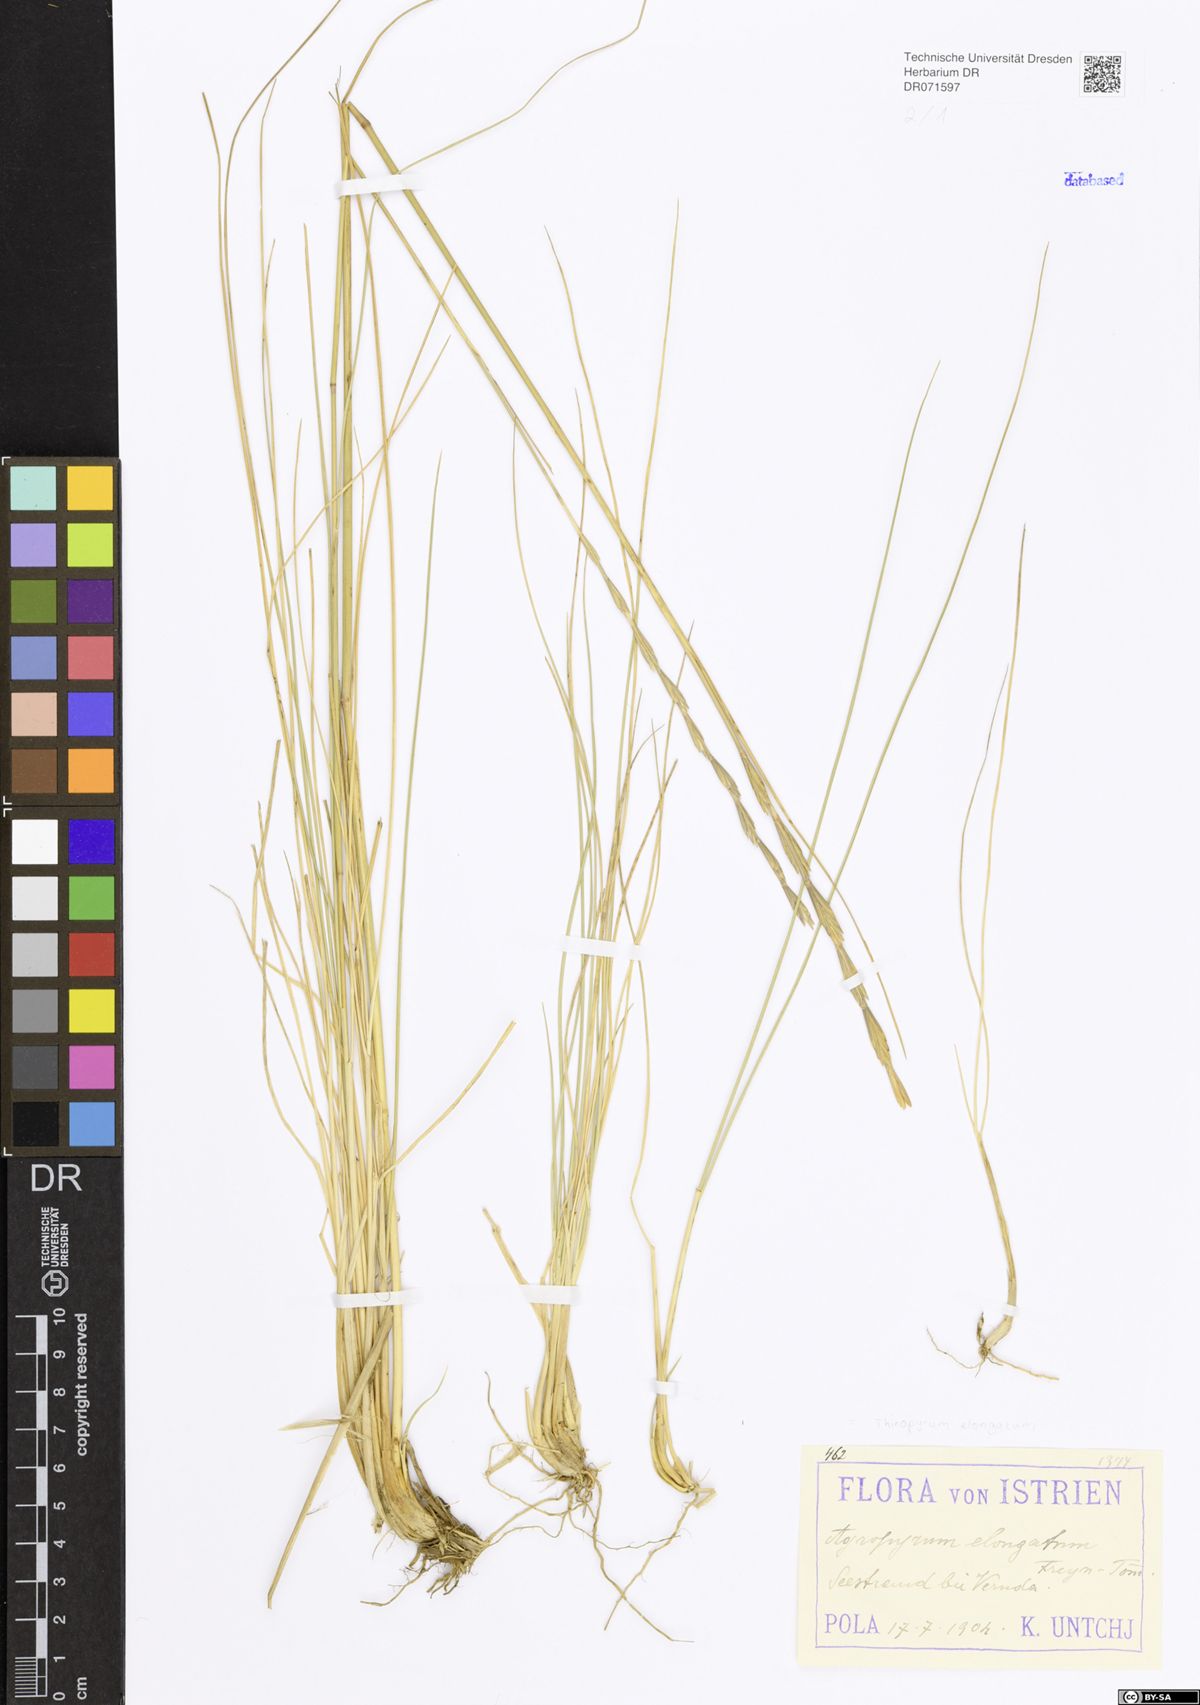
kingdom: Plantae
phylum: Tracheophyta
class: Liliopsida
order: Poales
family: Poaceae
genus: Thinopyrum
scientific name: Thinopyrum elongatum
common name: Tall wheatgrass
